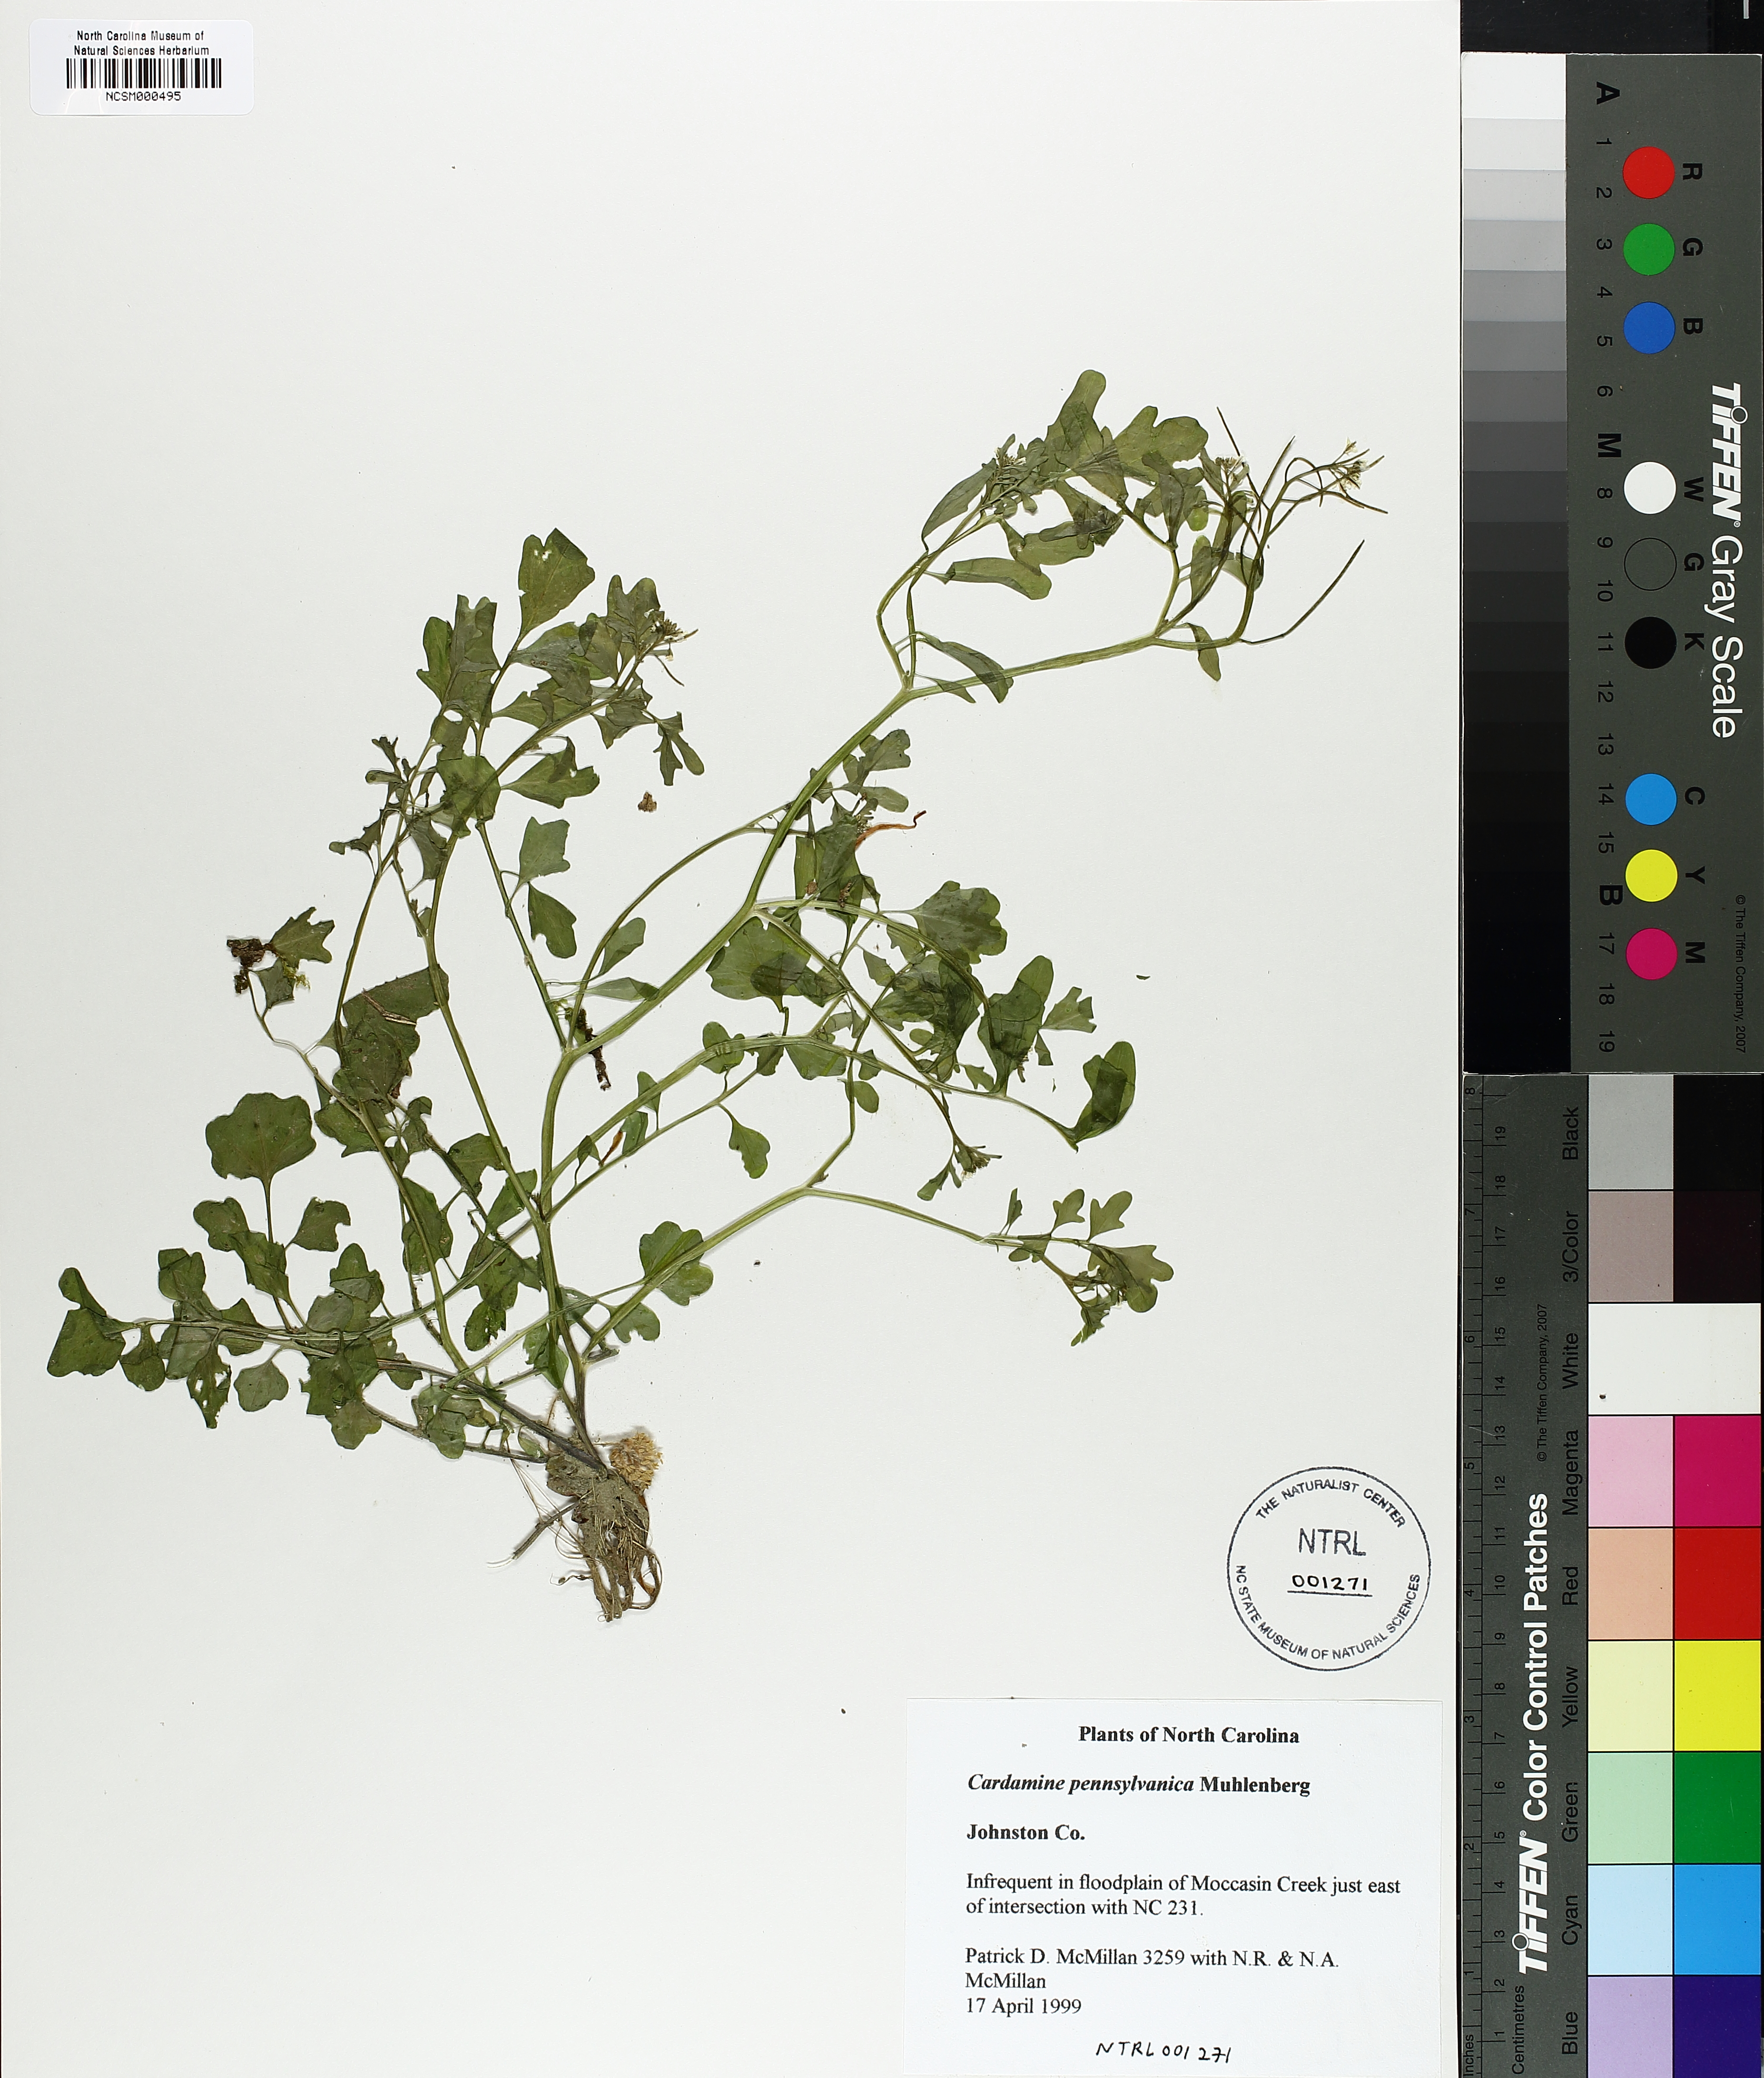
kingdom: Plantae
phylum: Tracheophyta
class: Magnoliopsida
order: Brassicales
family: Brassicaceae
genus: Cardamine
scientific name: Cardamine pensylvanica
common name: Pennsylvania bittercress
